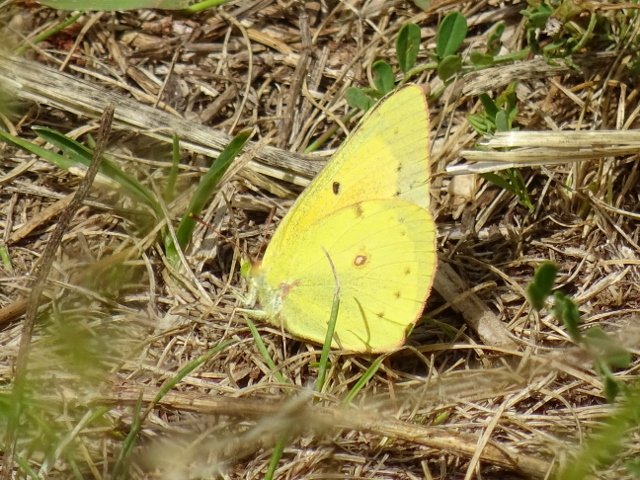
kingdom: Animalia
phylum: Arthropoda
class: Insecta
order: Lepidoptera
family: Pieridae
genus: Colias
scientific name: Colias philodice
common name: Clouded Sulphur
